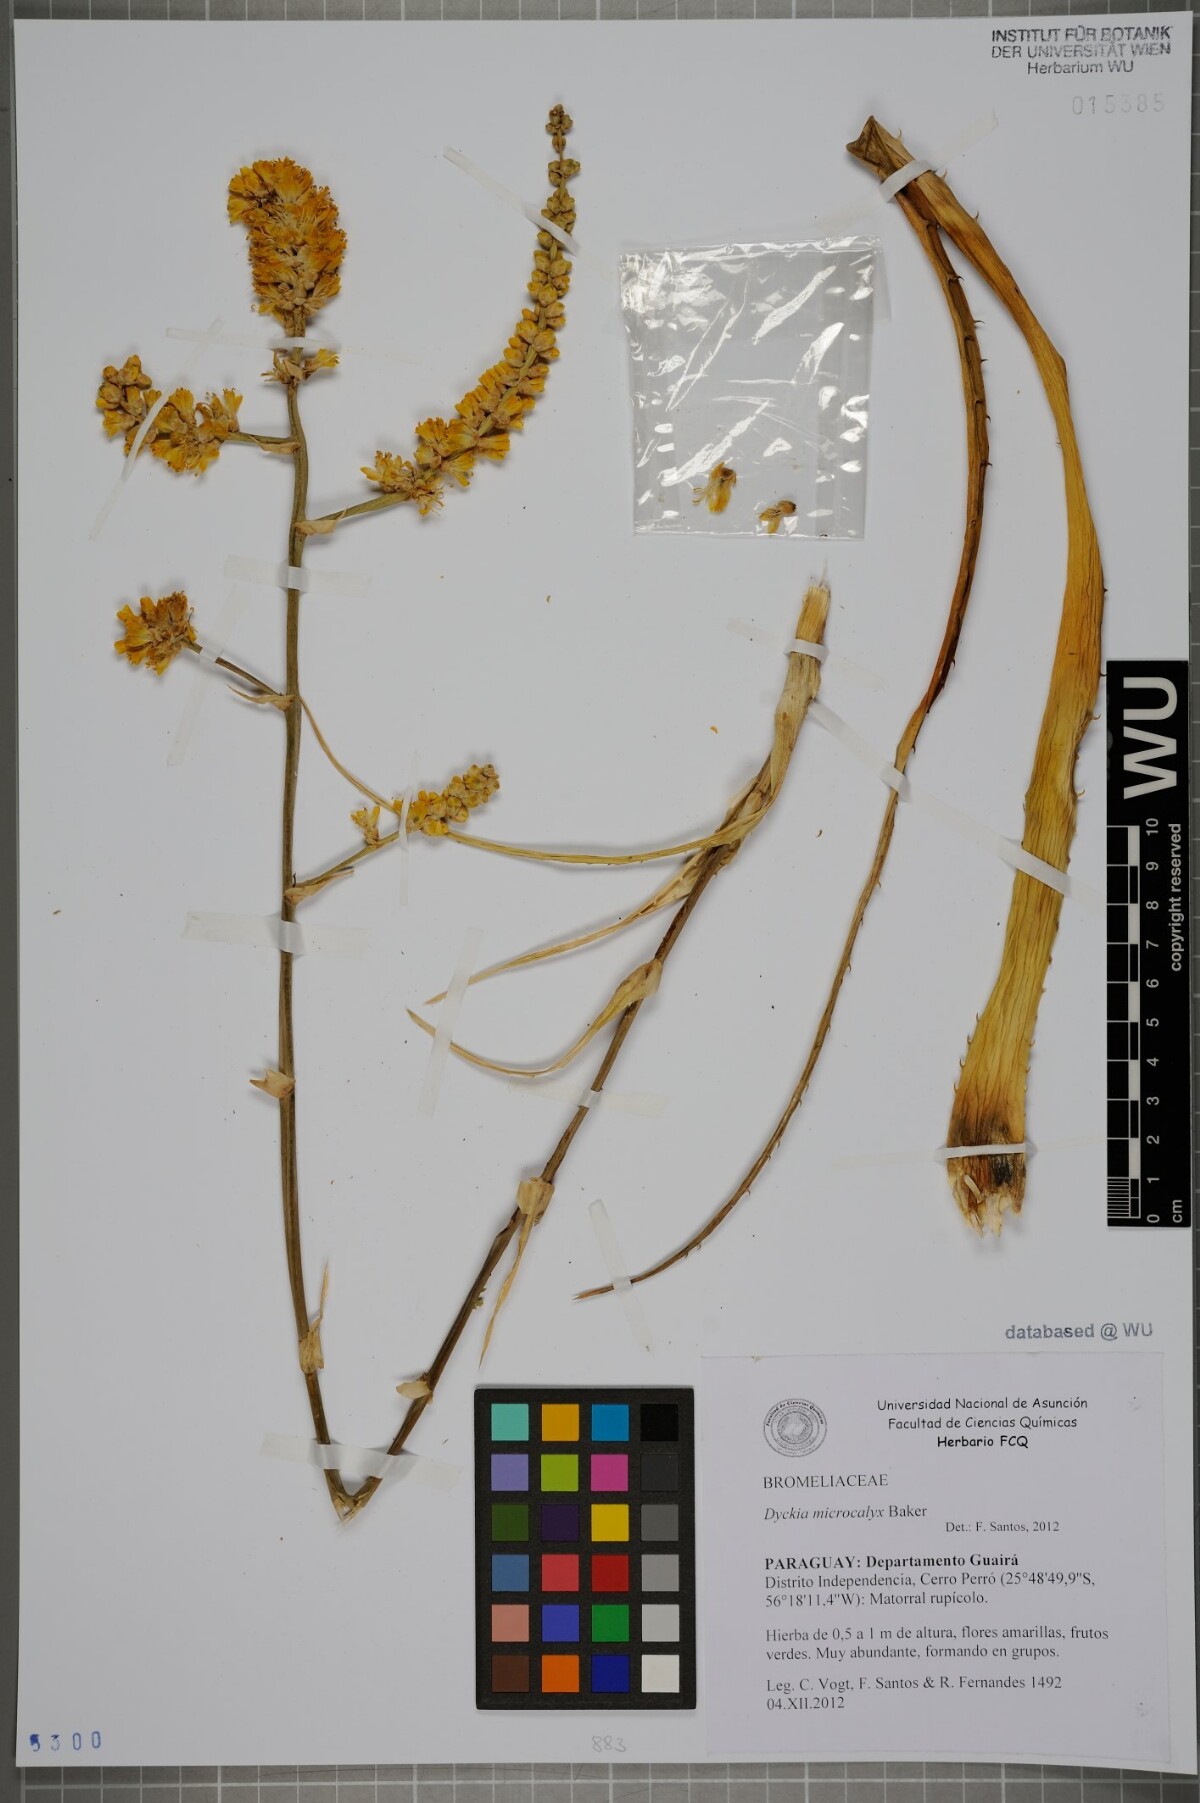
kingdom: Plantae
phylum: Tracheophyta
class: Liliopsida
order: Poales
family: Bromeliaceae
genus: Dyckia
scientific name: Dyckia microcalyx
